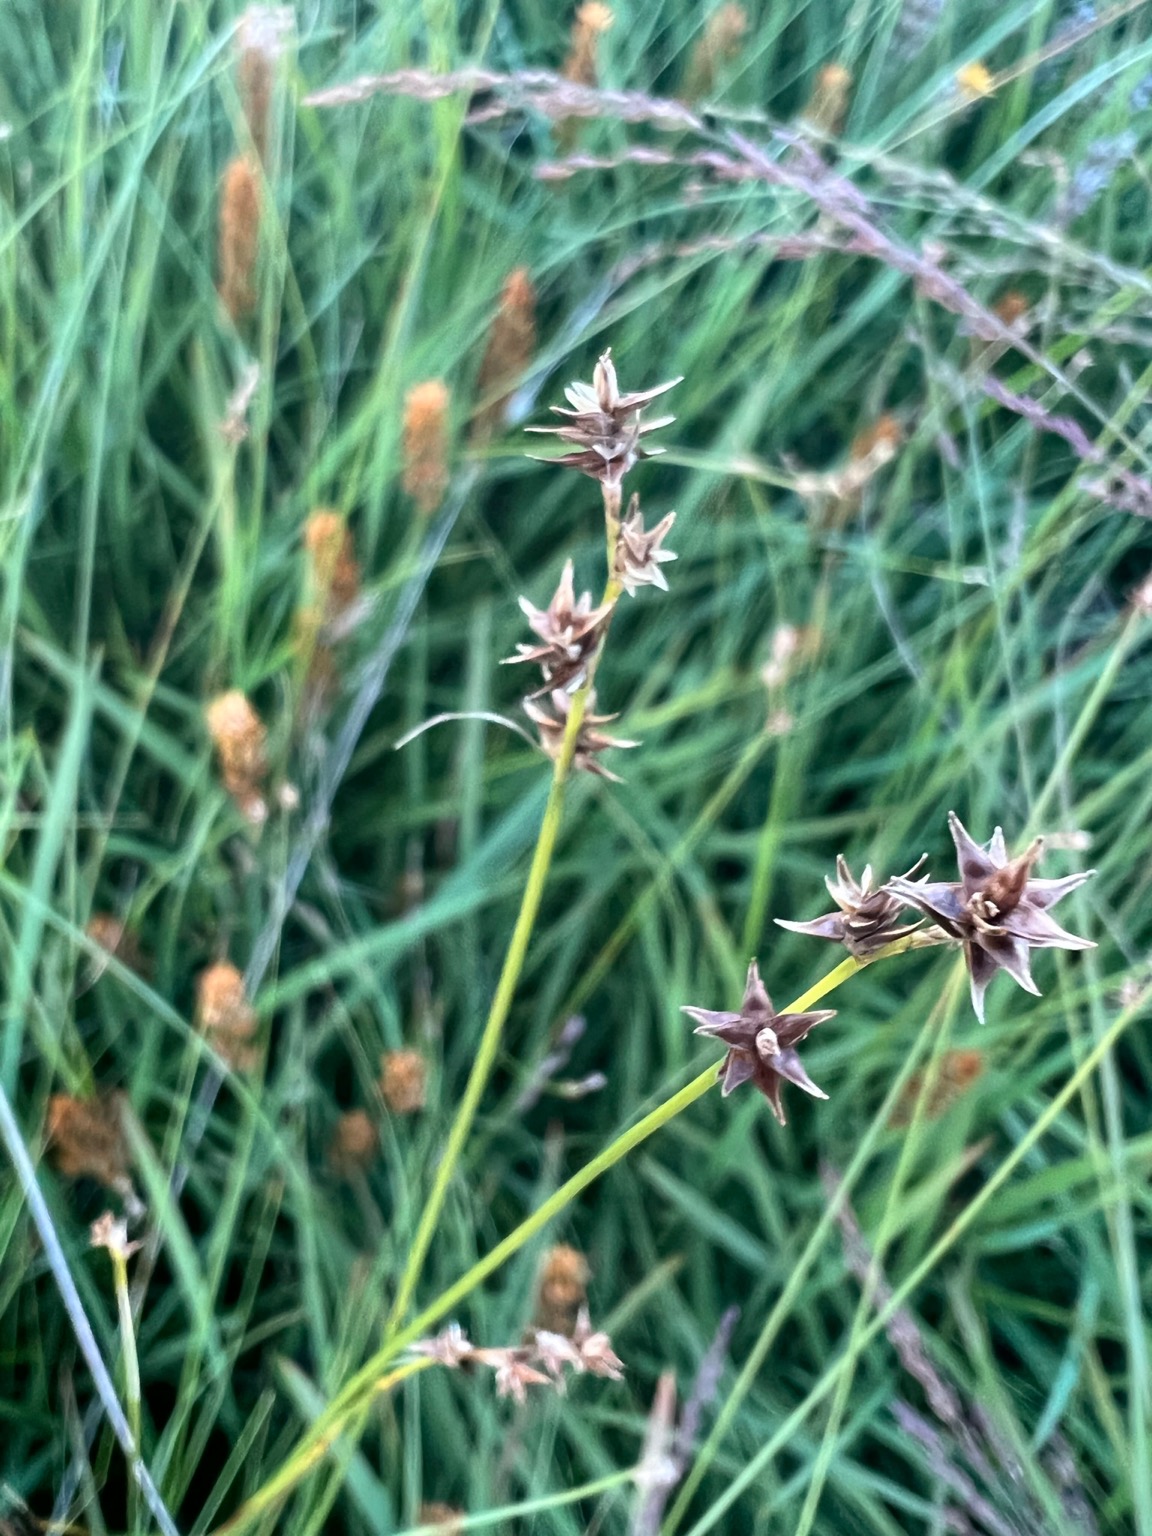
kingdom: Plantae
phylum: Tracheophyta
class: Liliopsida
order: Poales
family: Cyperaceae
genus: Carex
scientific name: Carex echinata
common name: Stjerne-star
